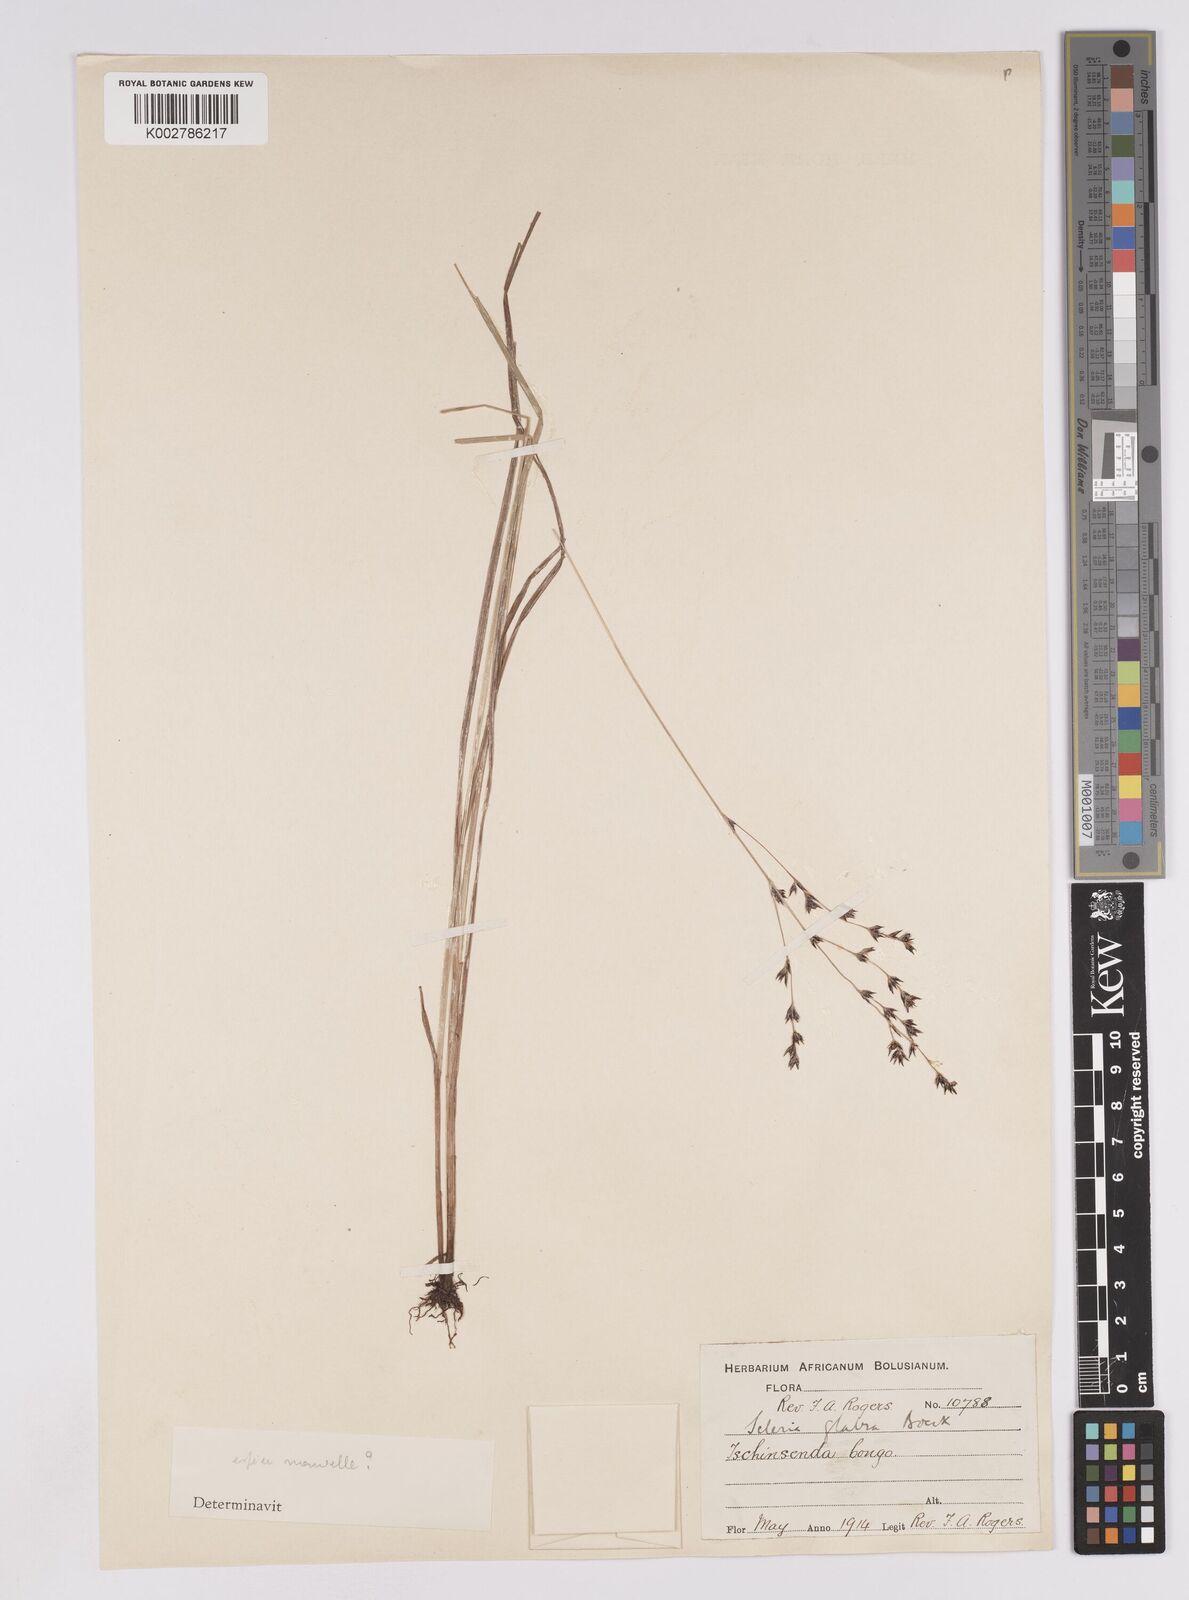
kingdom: Plantae
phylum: Tracheophyta
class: Liliopsida
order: Poales
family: Cyperaceae
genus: Scleria
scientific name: Scleria glabra
